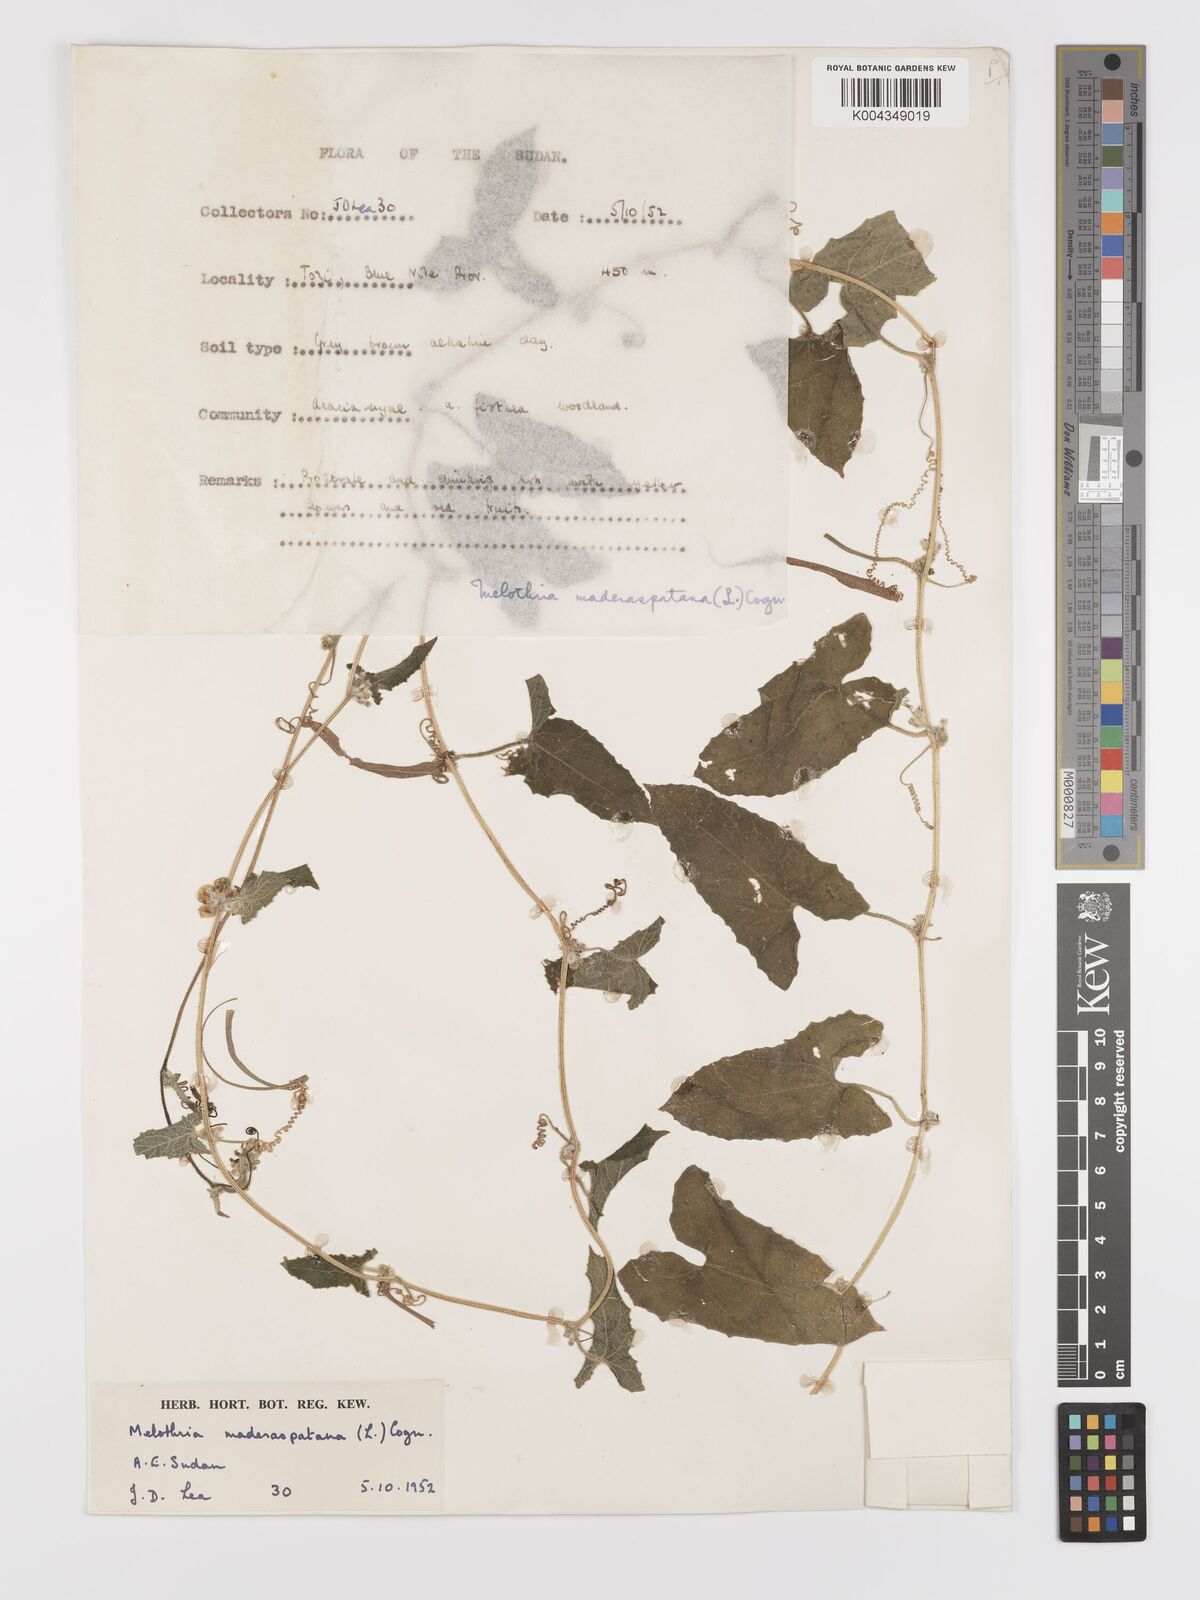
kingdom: Plantae
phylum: Tracheophyta
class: Magnoliopsida
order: Cucurbitales
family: Cucurbitaceae
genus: Cucumis
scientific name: Cucumis maderaspatanus
